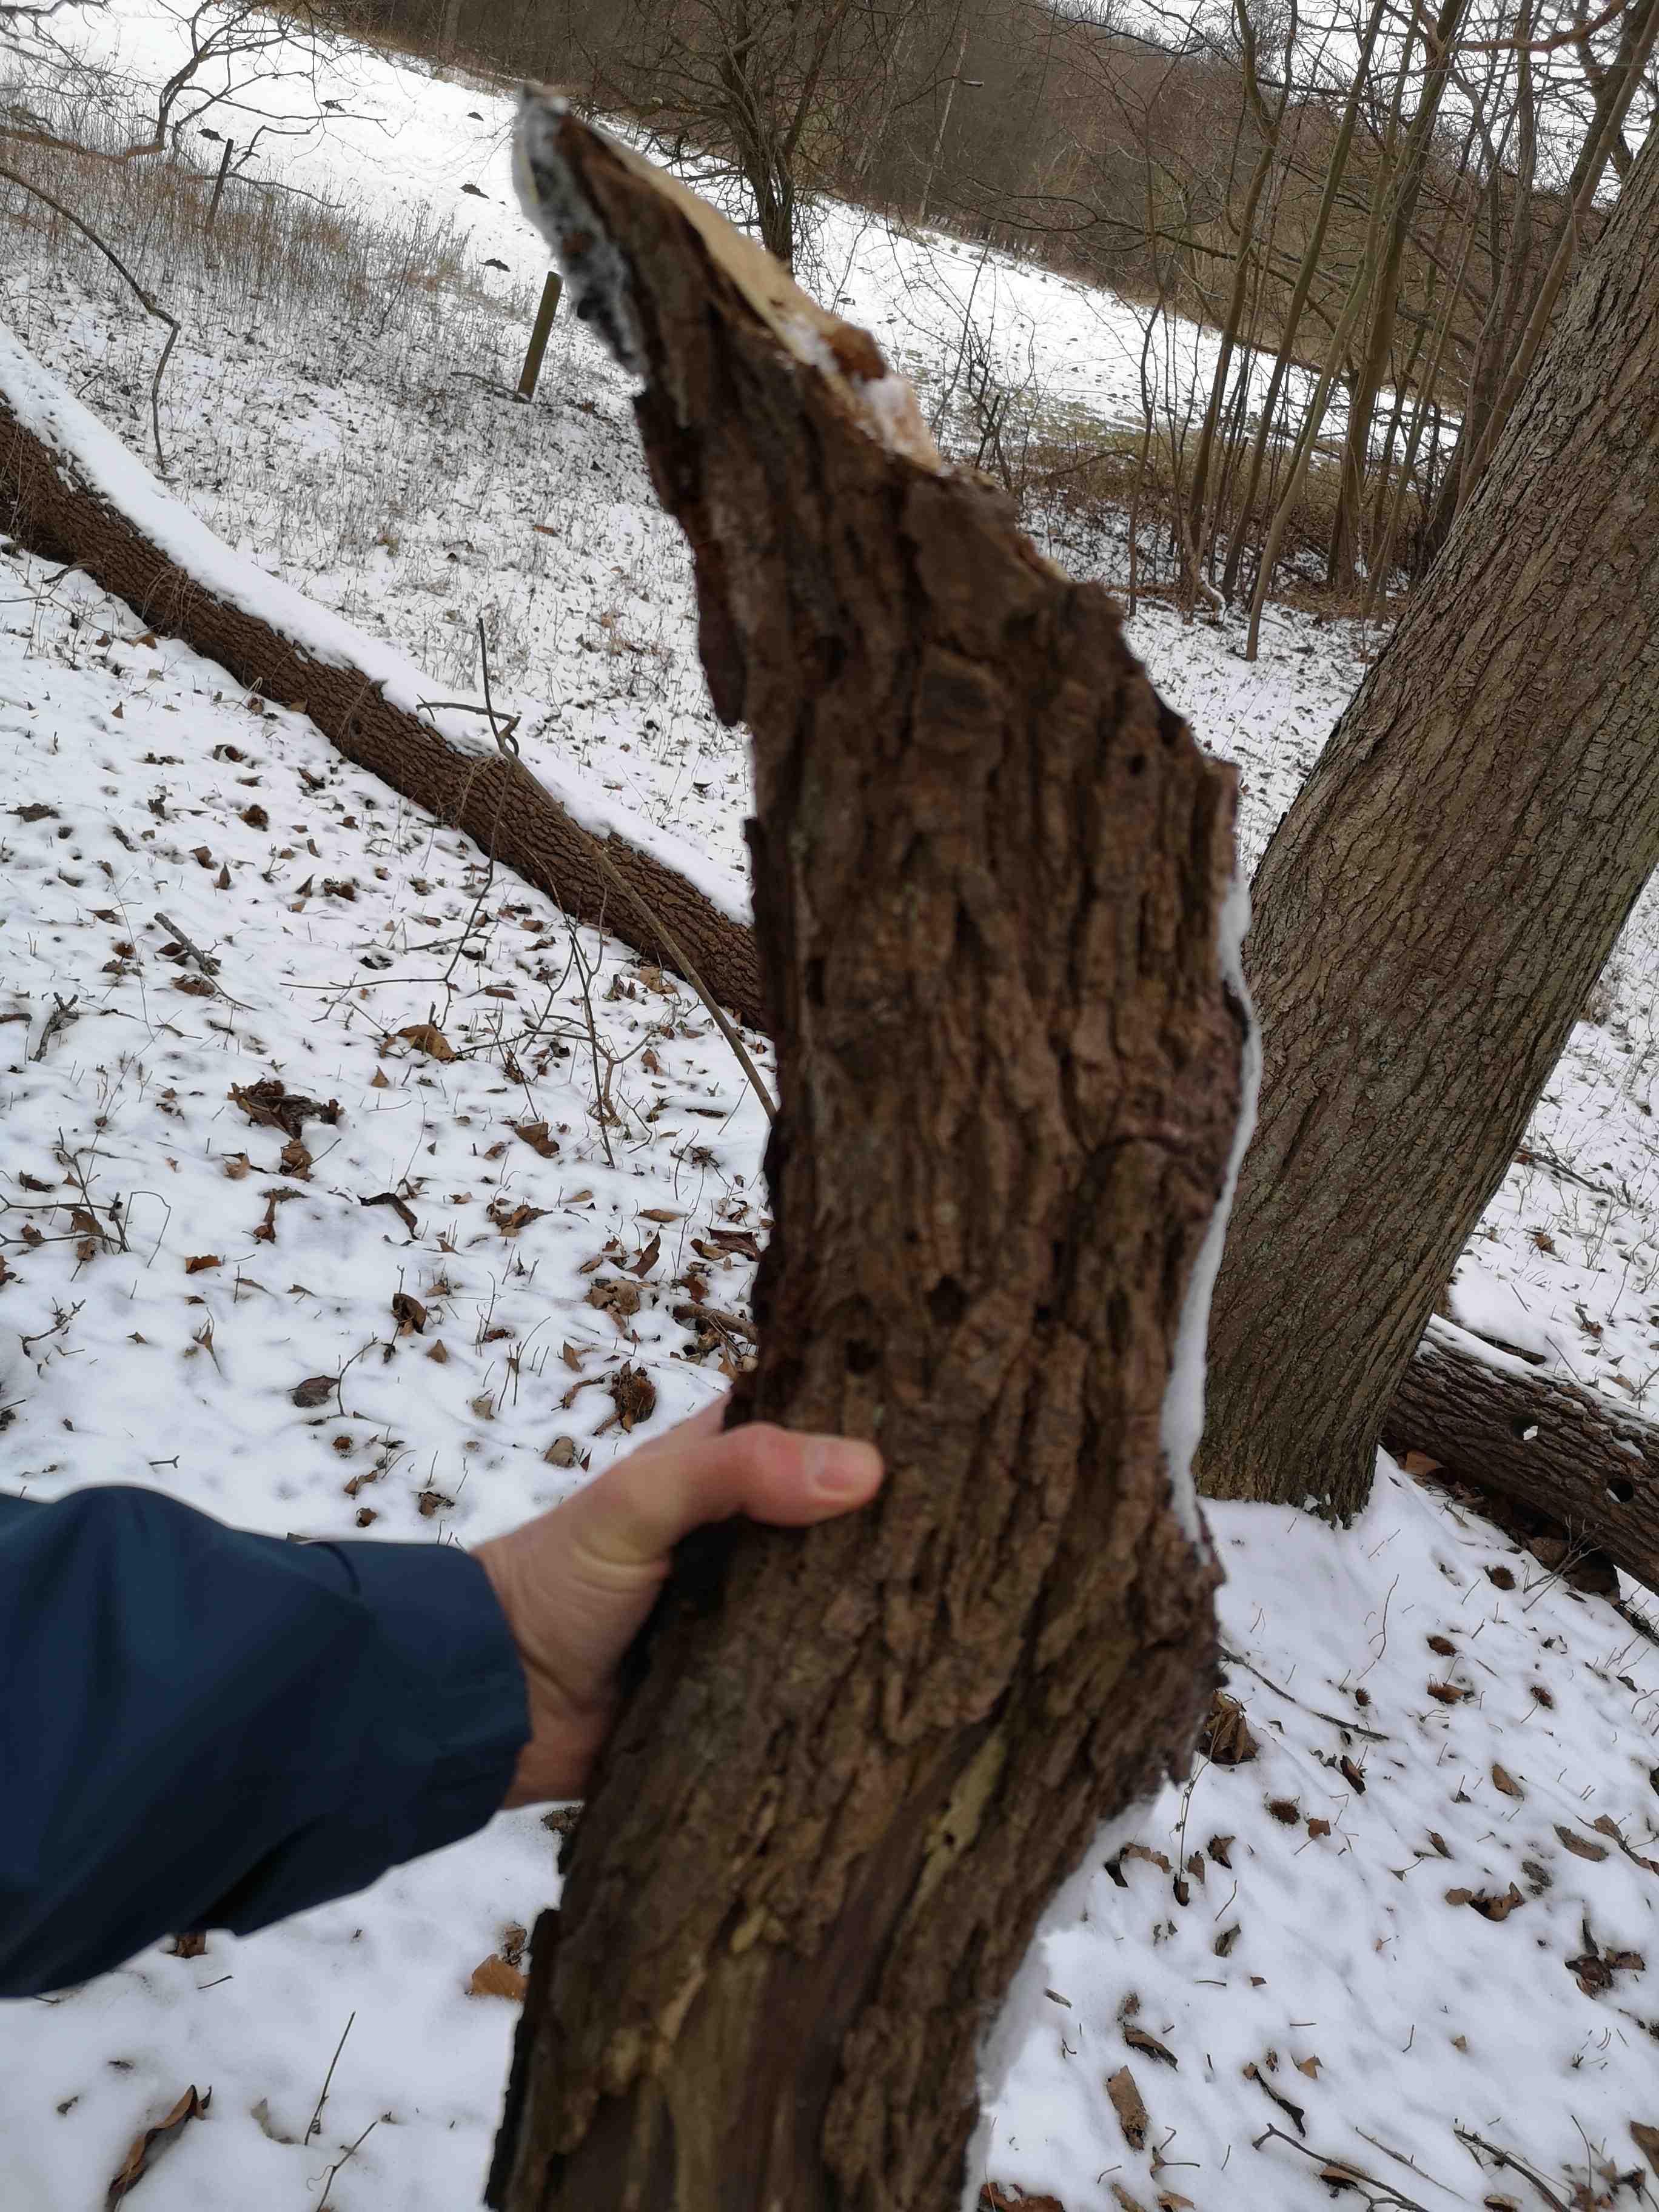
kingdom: Fungi
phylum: Basidiomycota
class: Agaricomycetes
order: Polyporales
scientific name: Polyporales
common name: poresvampordenen
